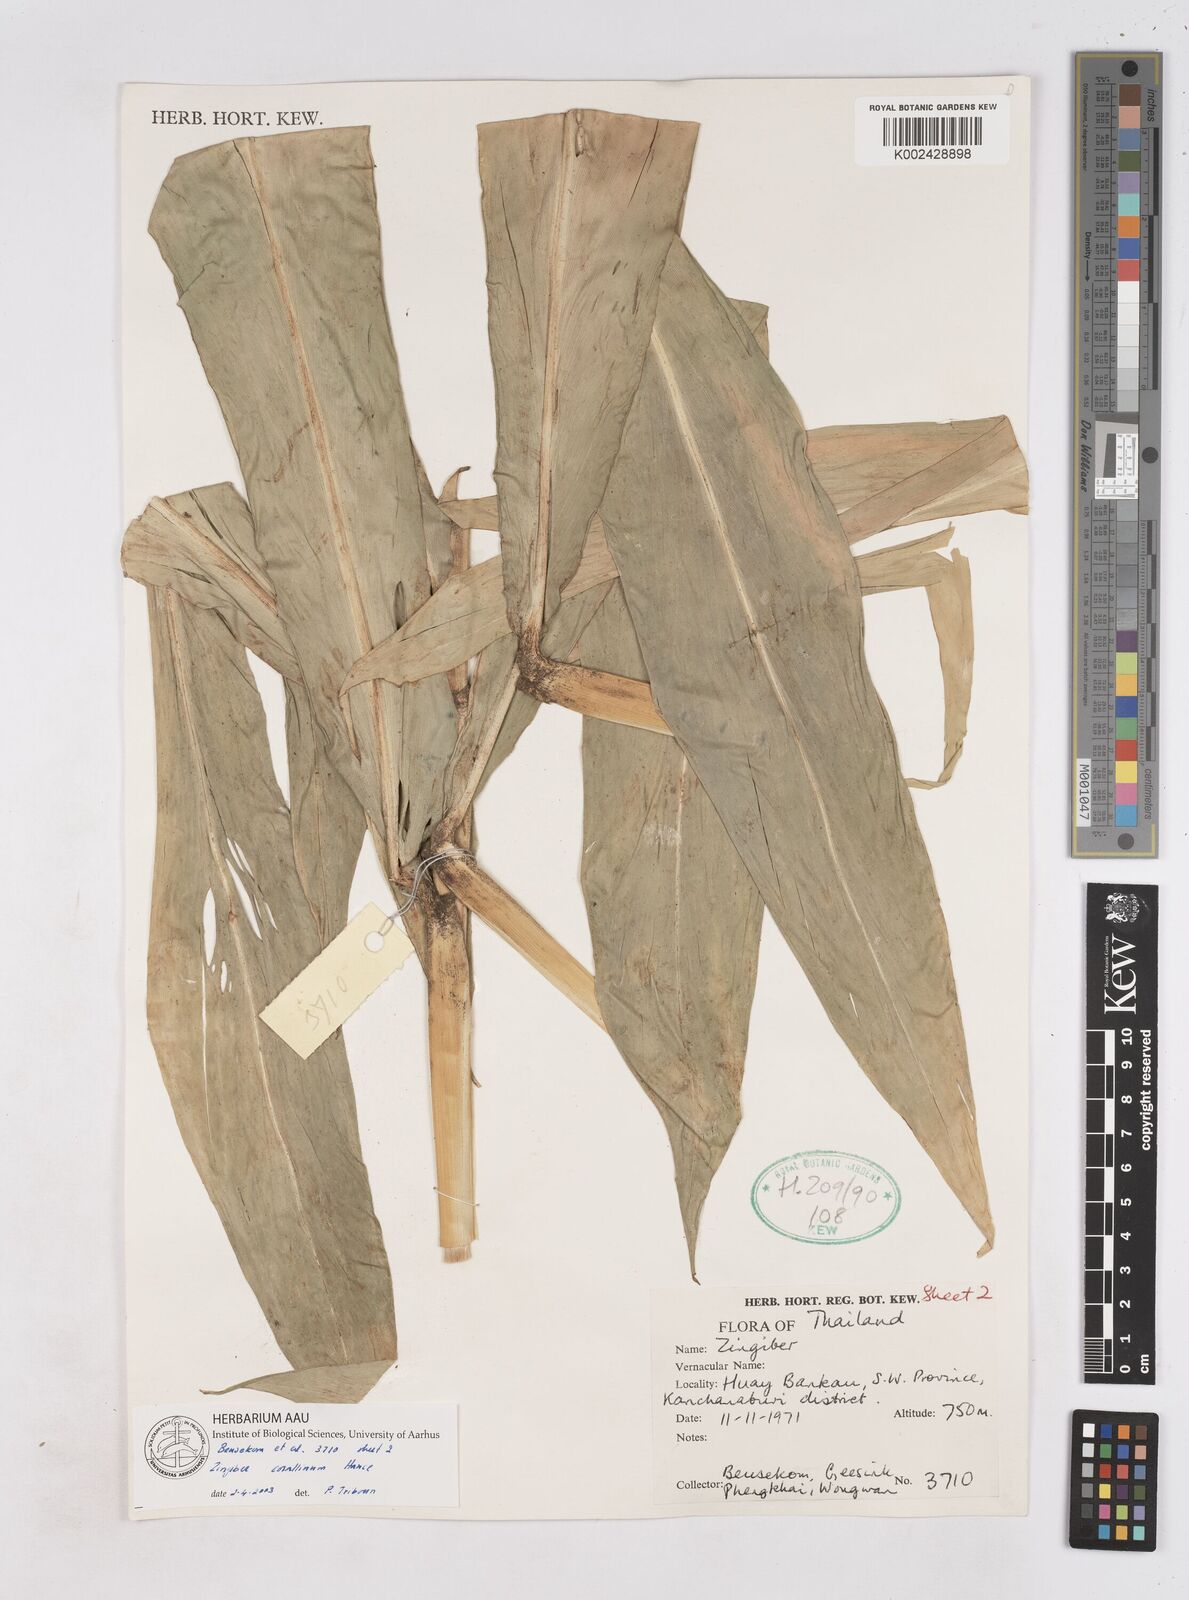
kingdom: Plantae
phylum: Tracheophyta
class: Liliopsida
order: Zingiberales
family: Zingiberaceae
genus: Zingiber
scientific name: Zingiber corallinum
